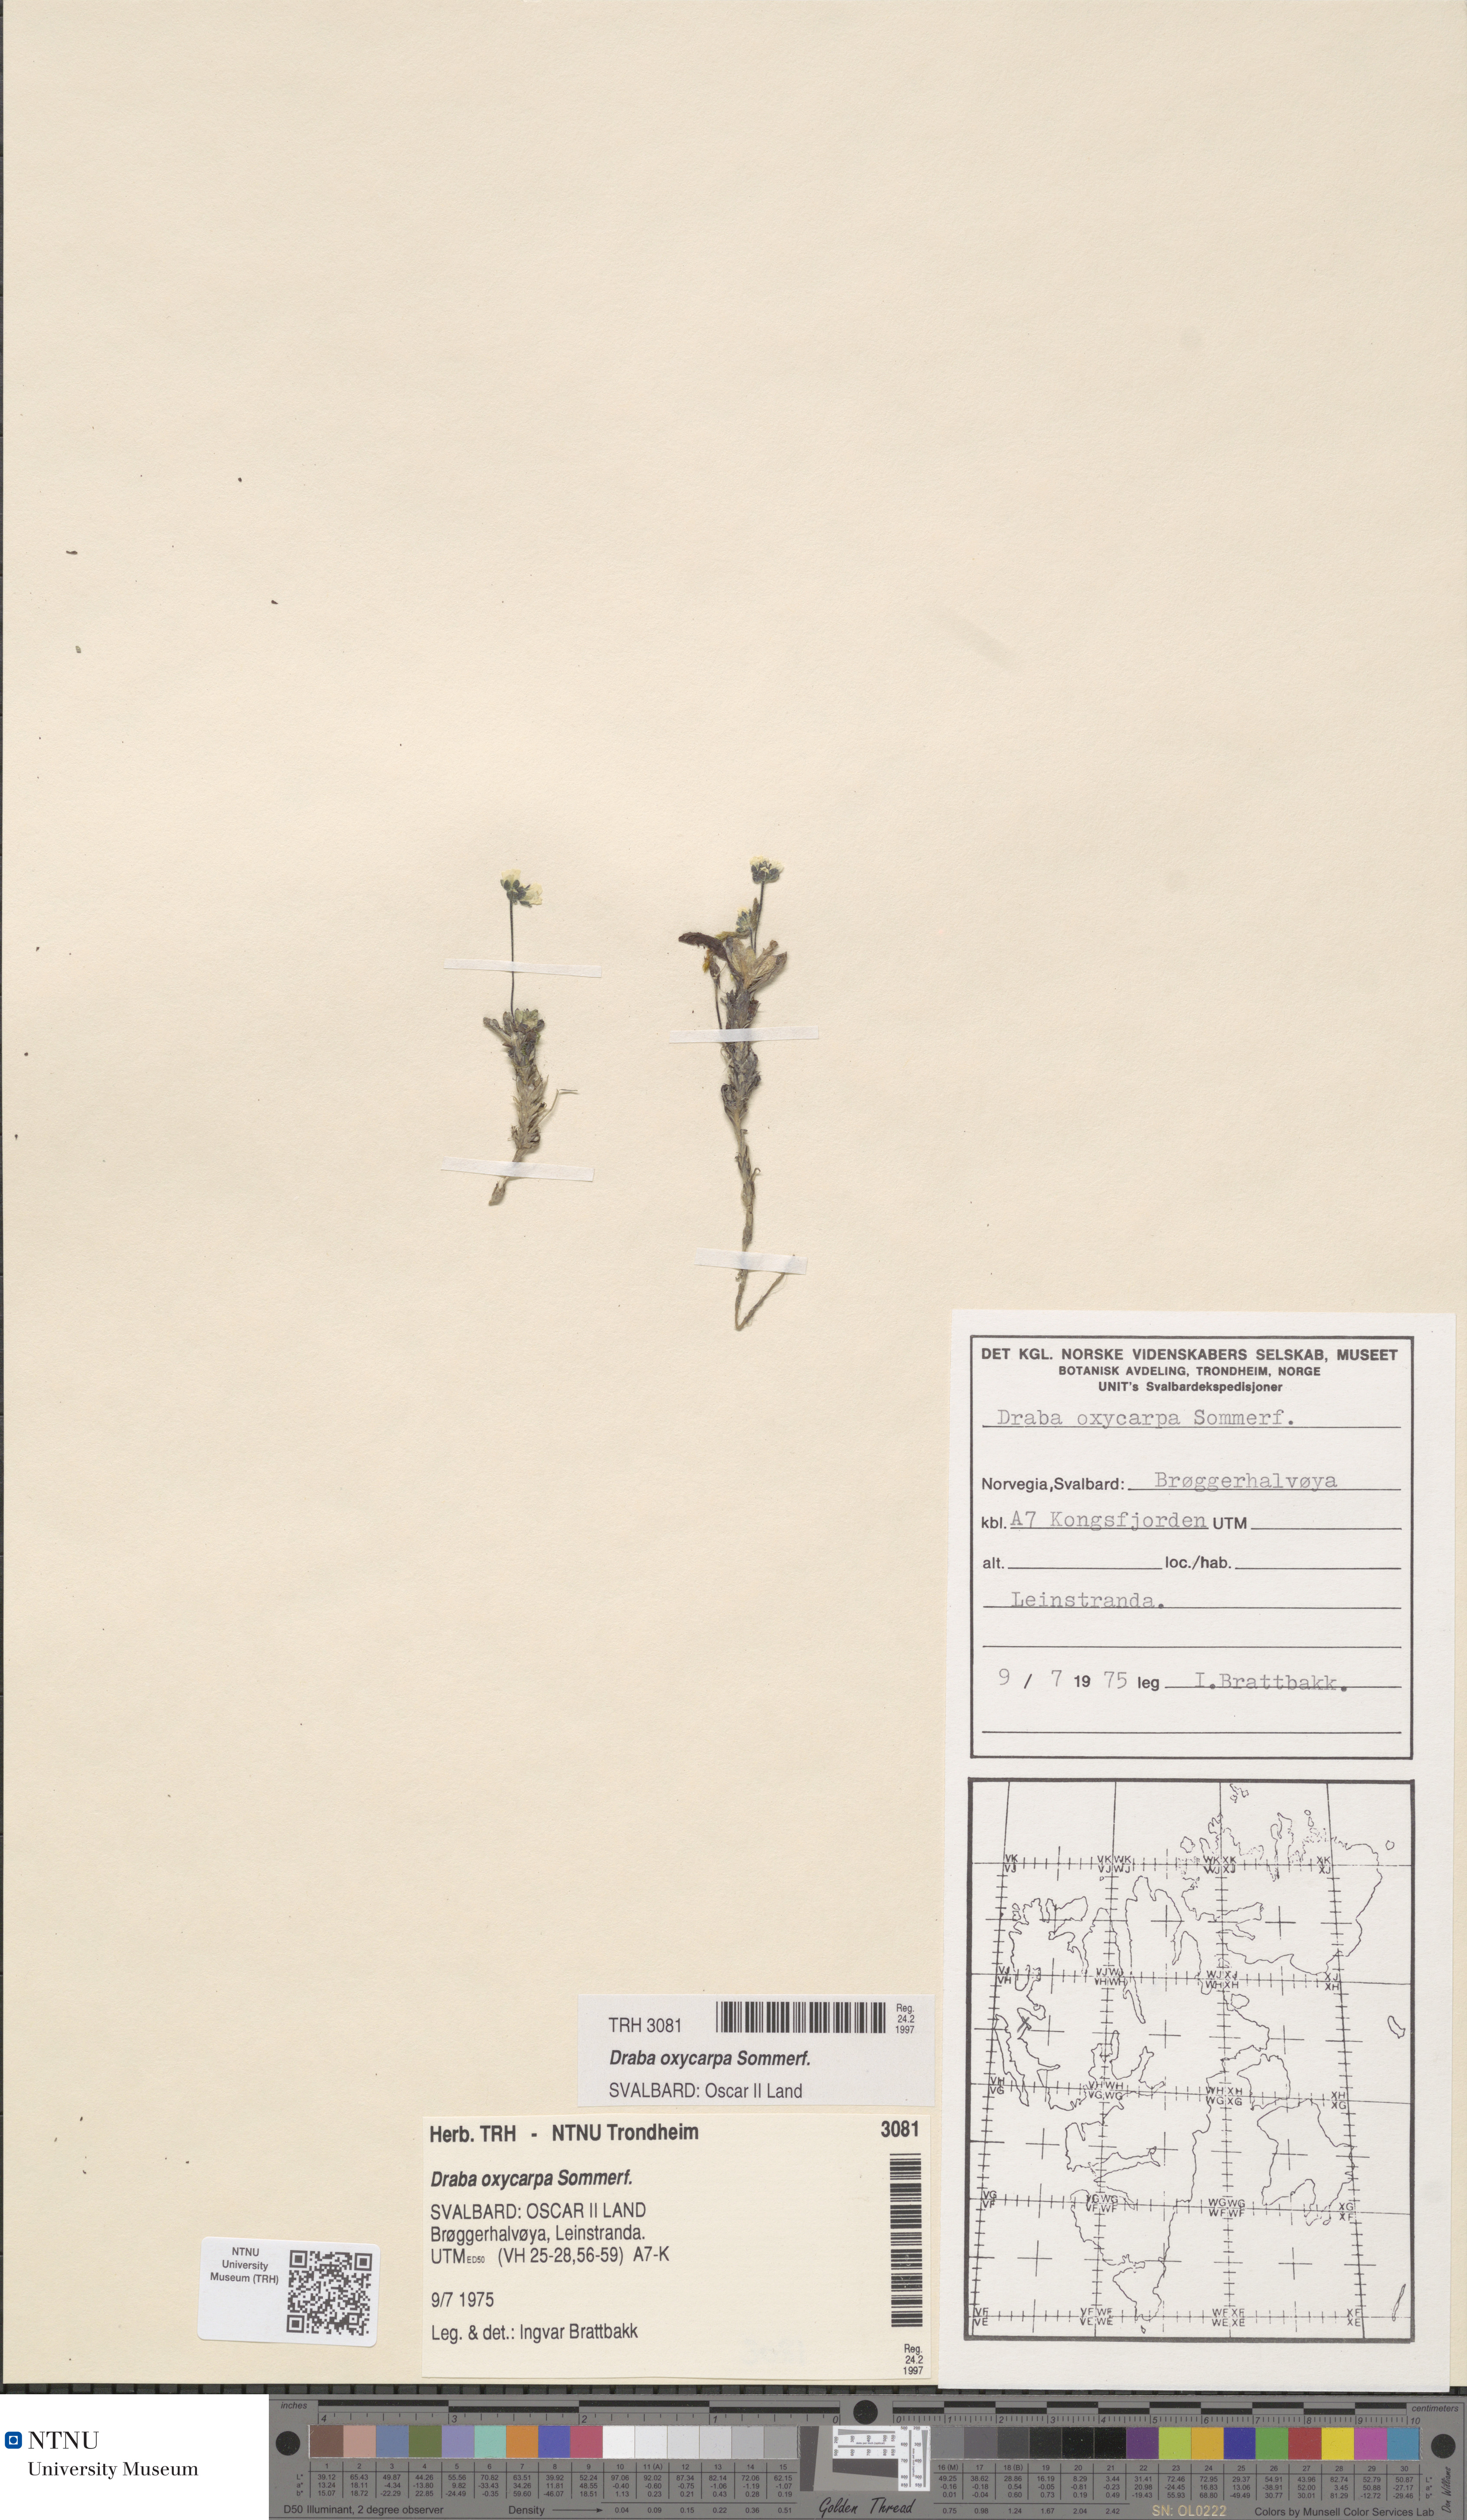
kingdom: Plantae
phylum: Tracheophyta
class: Magnoliopsida
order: Brassicales
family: Brassicaceae
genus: Draba
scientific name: Draba oxycarpa
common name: Sharp-fruited whitlow-grass
